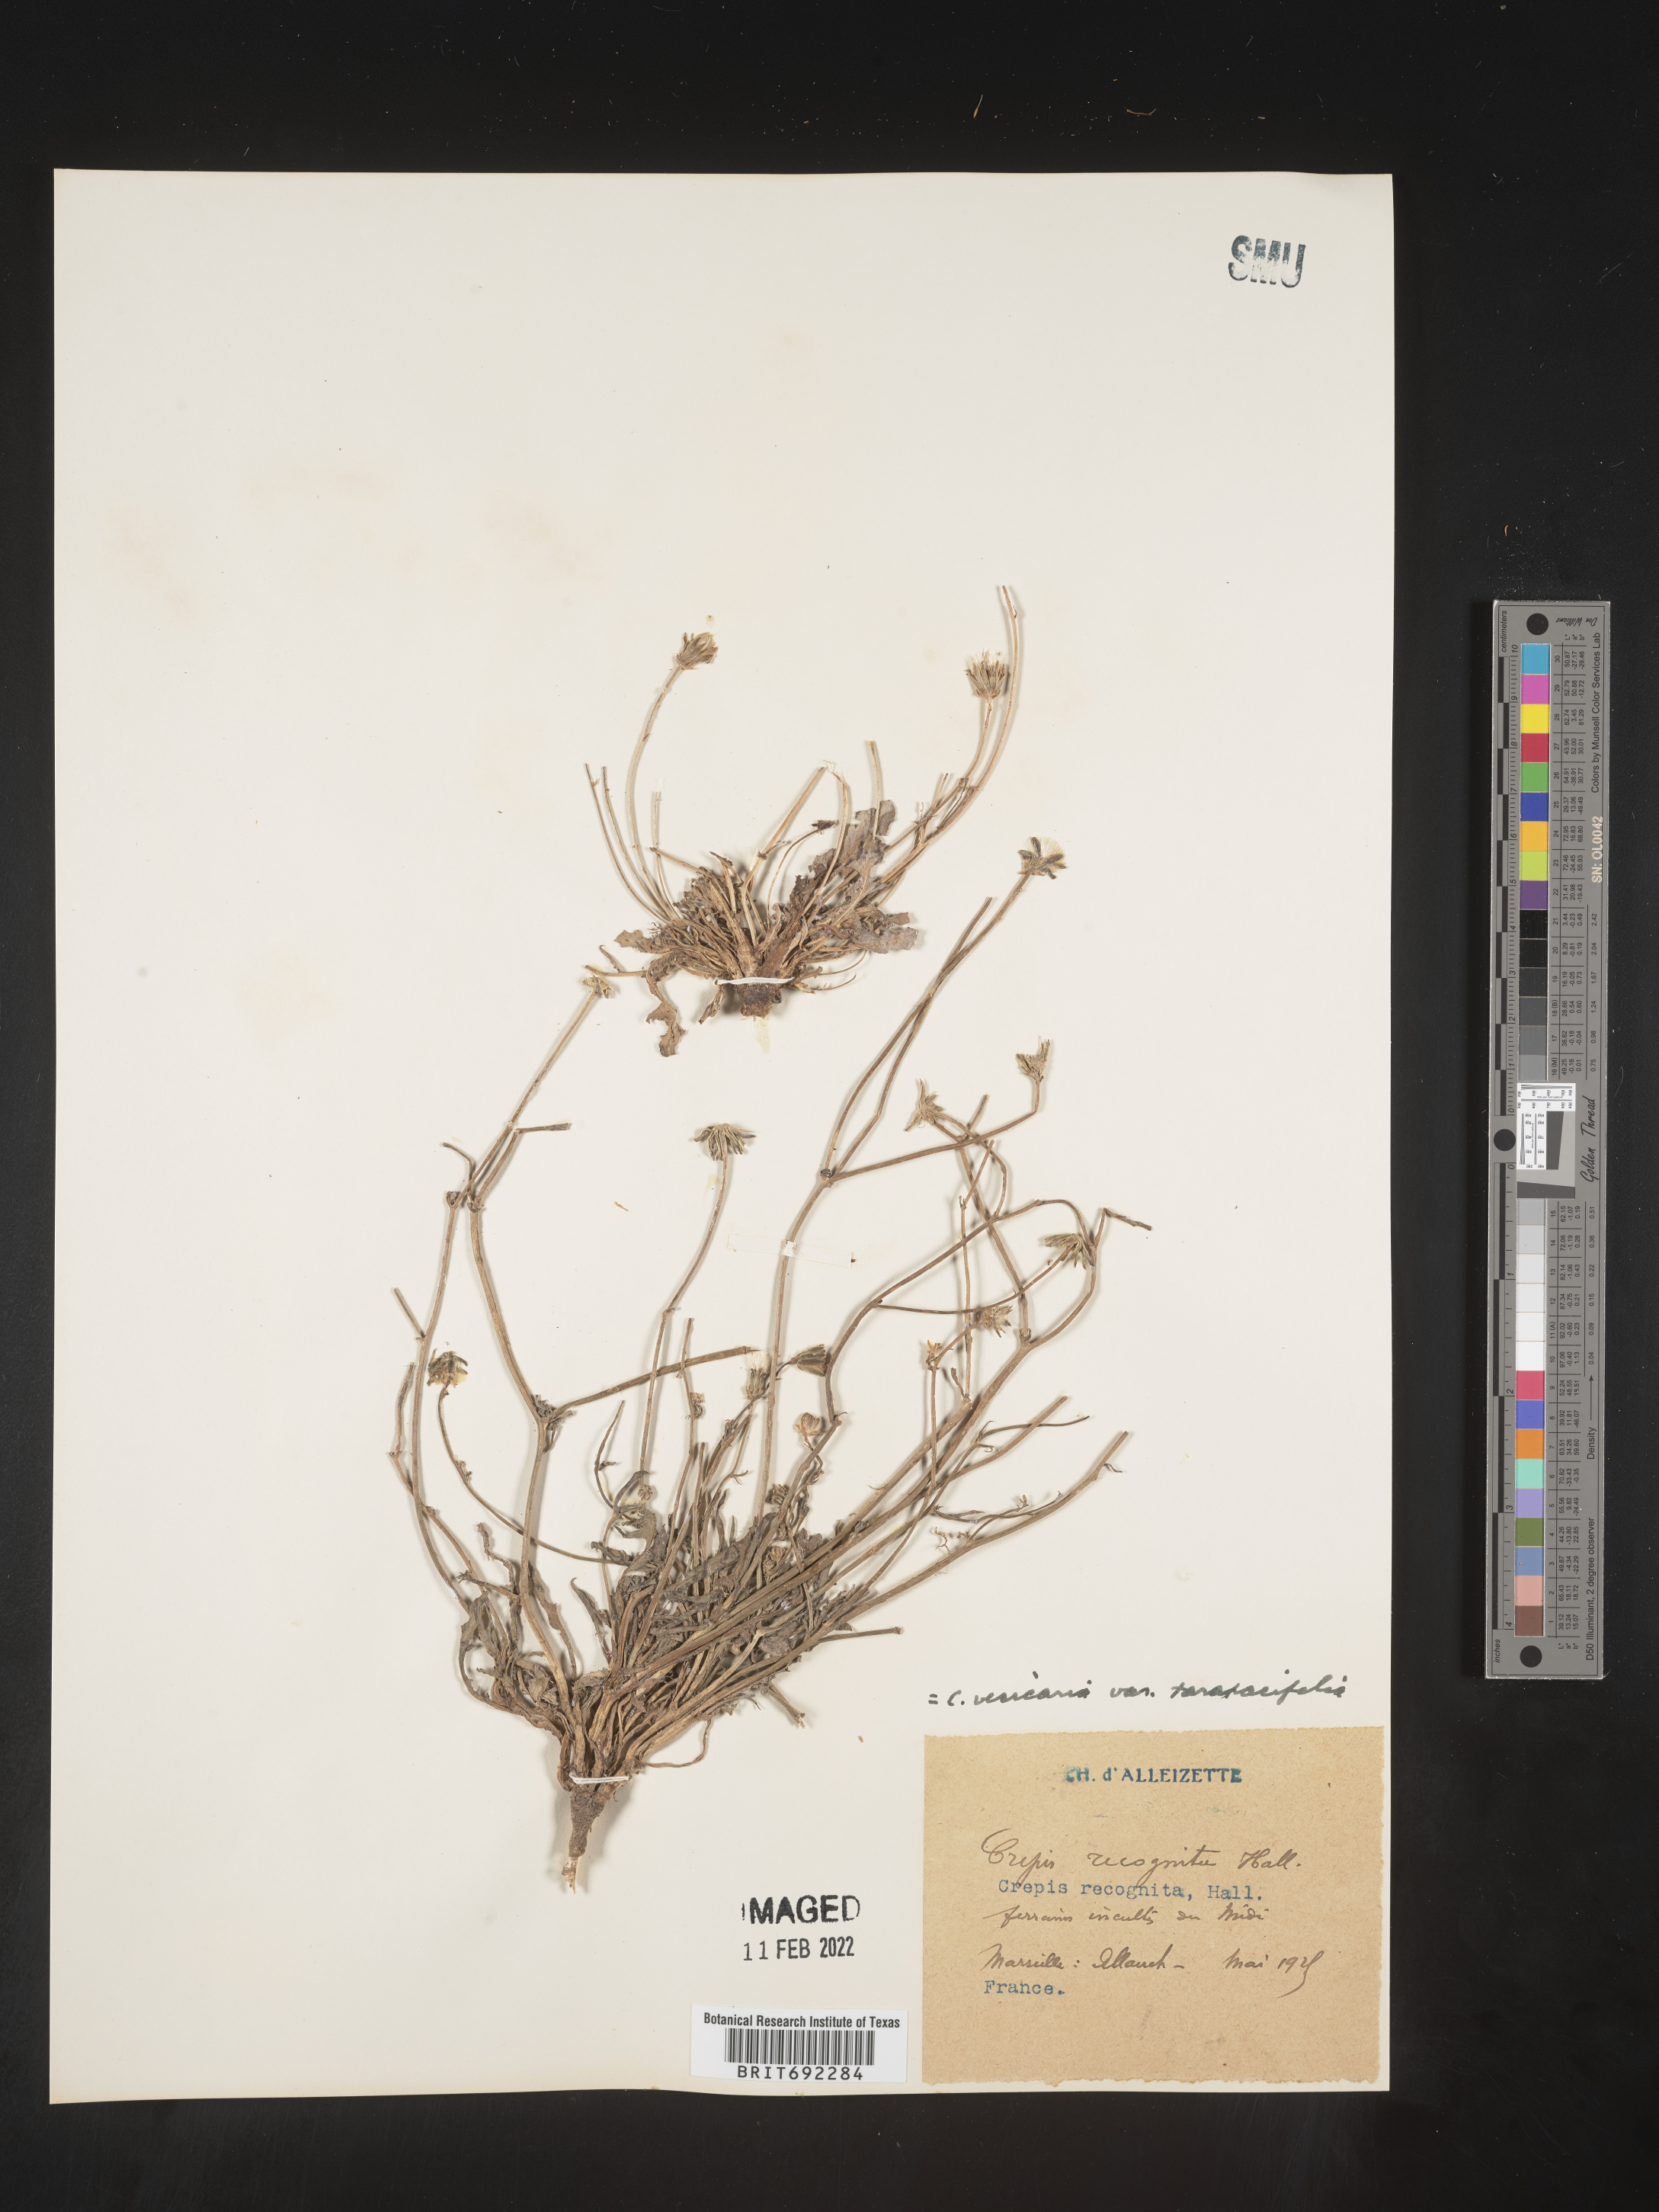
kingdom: Plantae
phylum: Tracheophyta
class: Magnoliopsida
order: Asterales
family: Asteraceae
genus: Crepis
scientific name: Crepis
